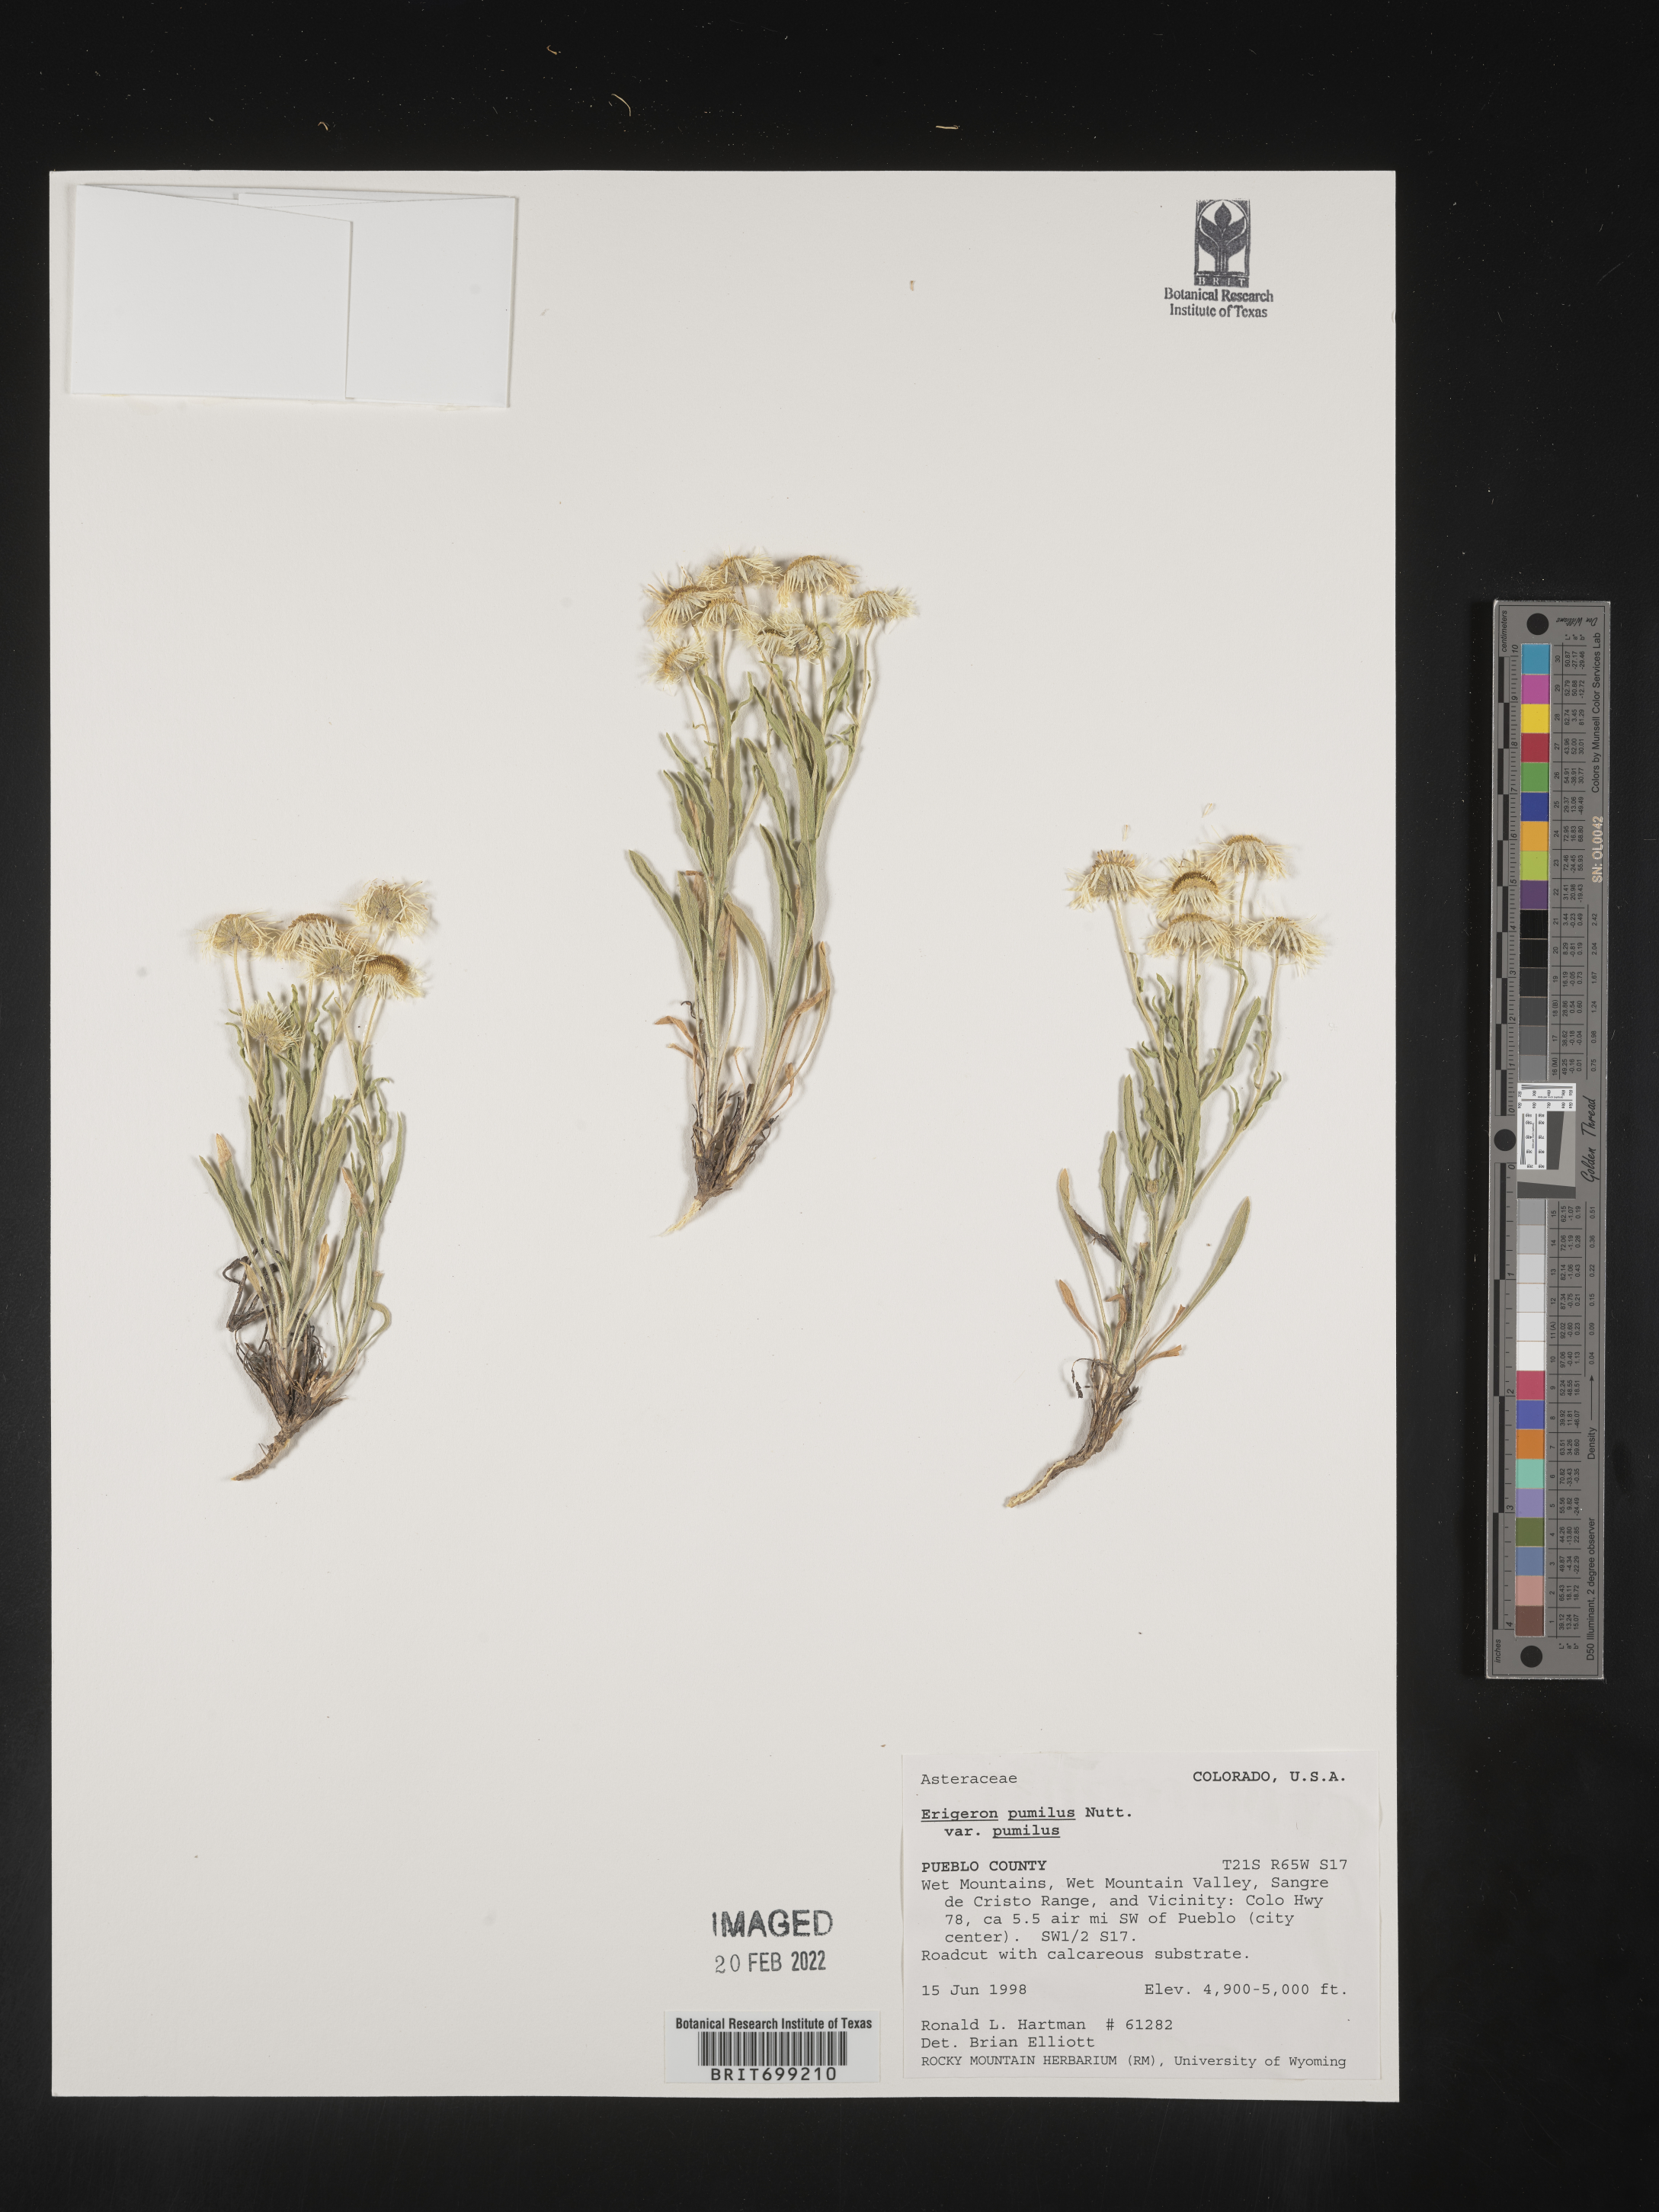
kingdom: Plantae
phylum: Tracheophyta
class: Magnoliopsida
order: Asterales
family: Asteraceae
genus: Erigeron
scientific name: Erigeron pumilus
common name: Shaggy fleabane
